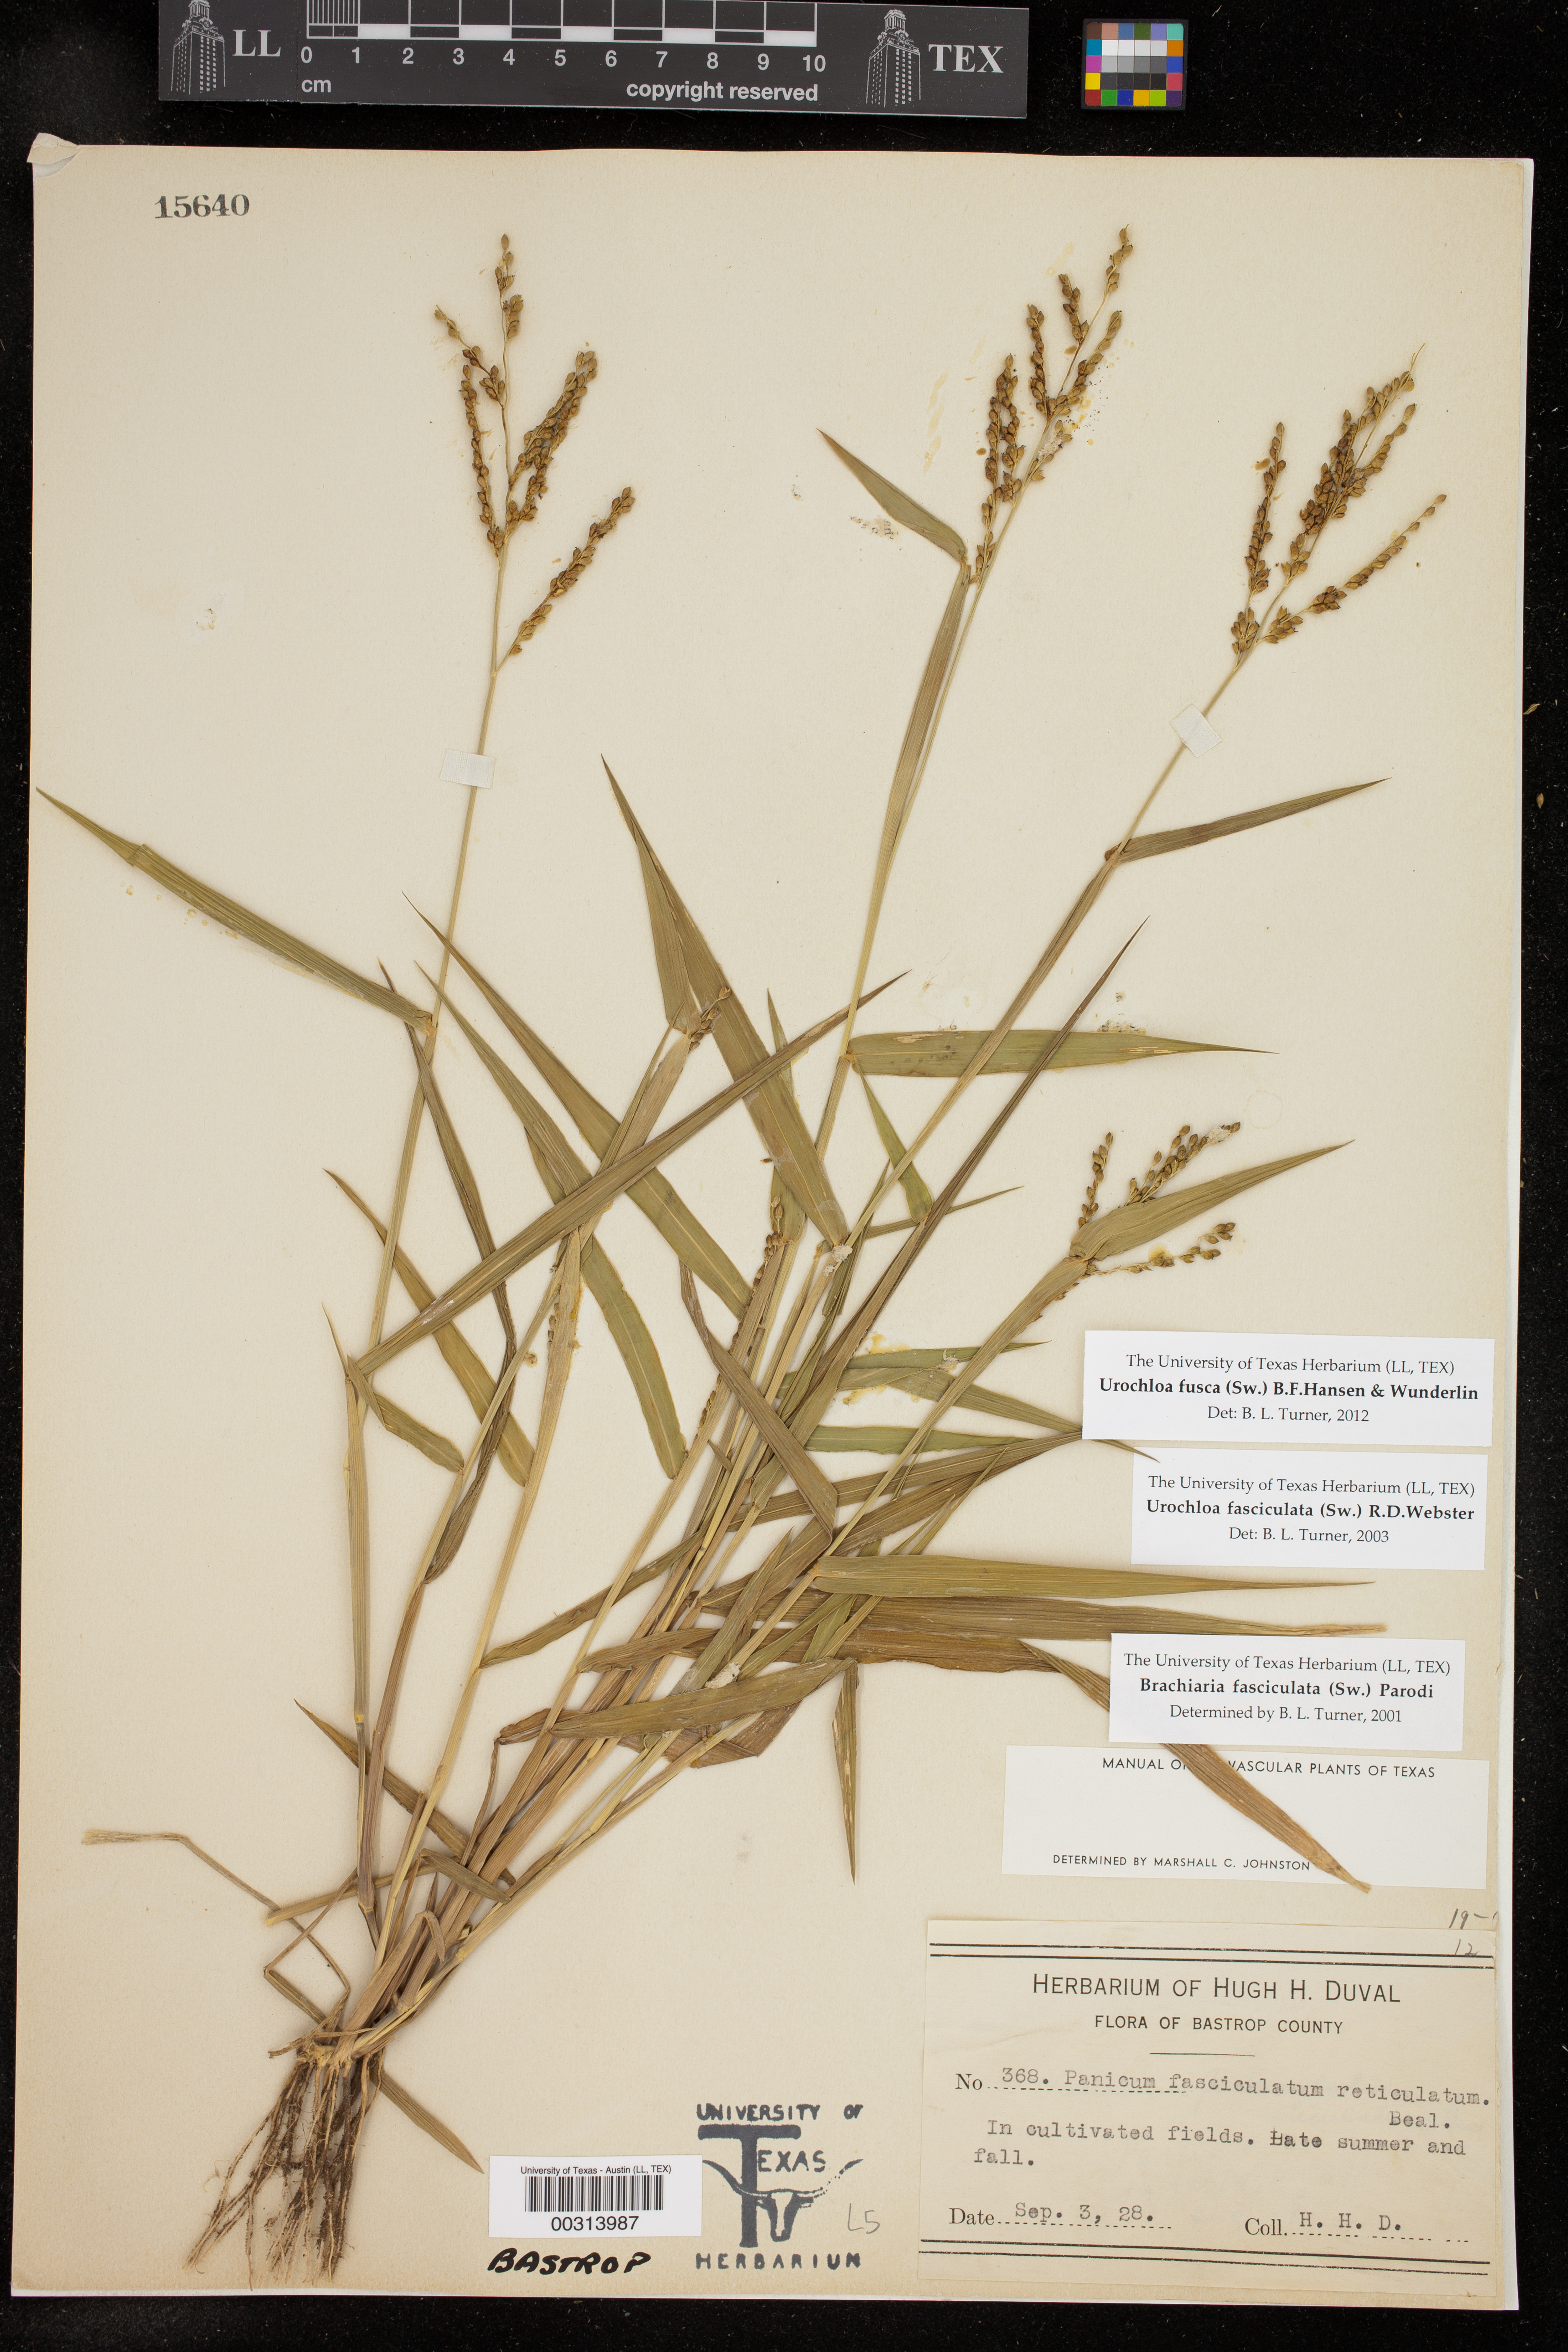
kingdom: Plantae
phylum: Tracheophyta
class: Liliopsida
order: Poales
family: Poaceae
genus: Urochloa
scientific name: Urochloa fusca
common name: Browntop signal grass
